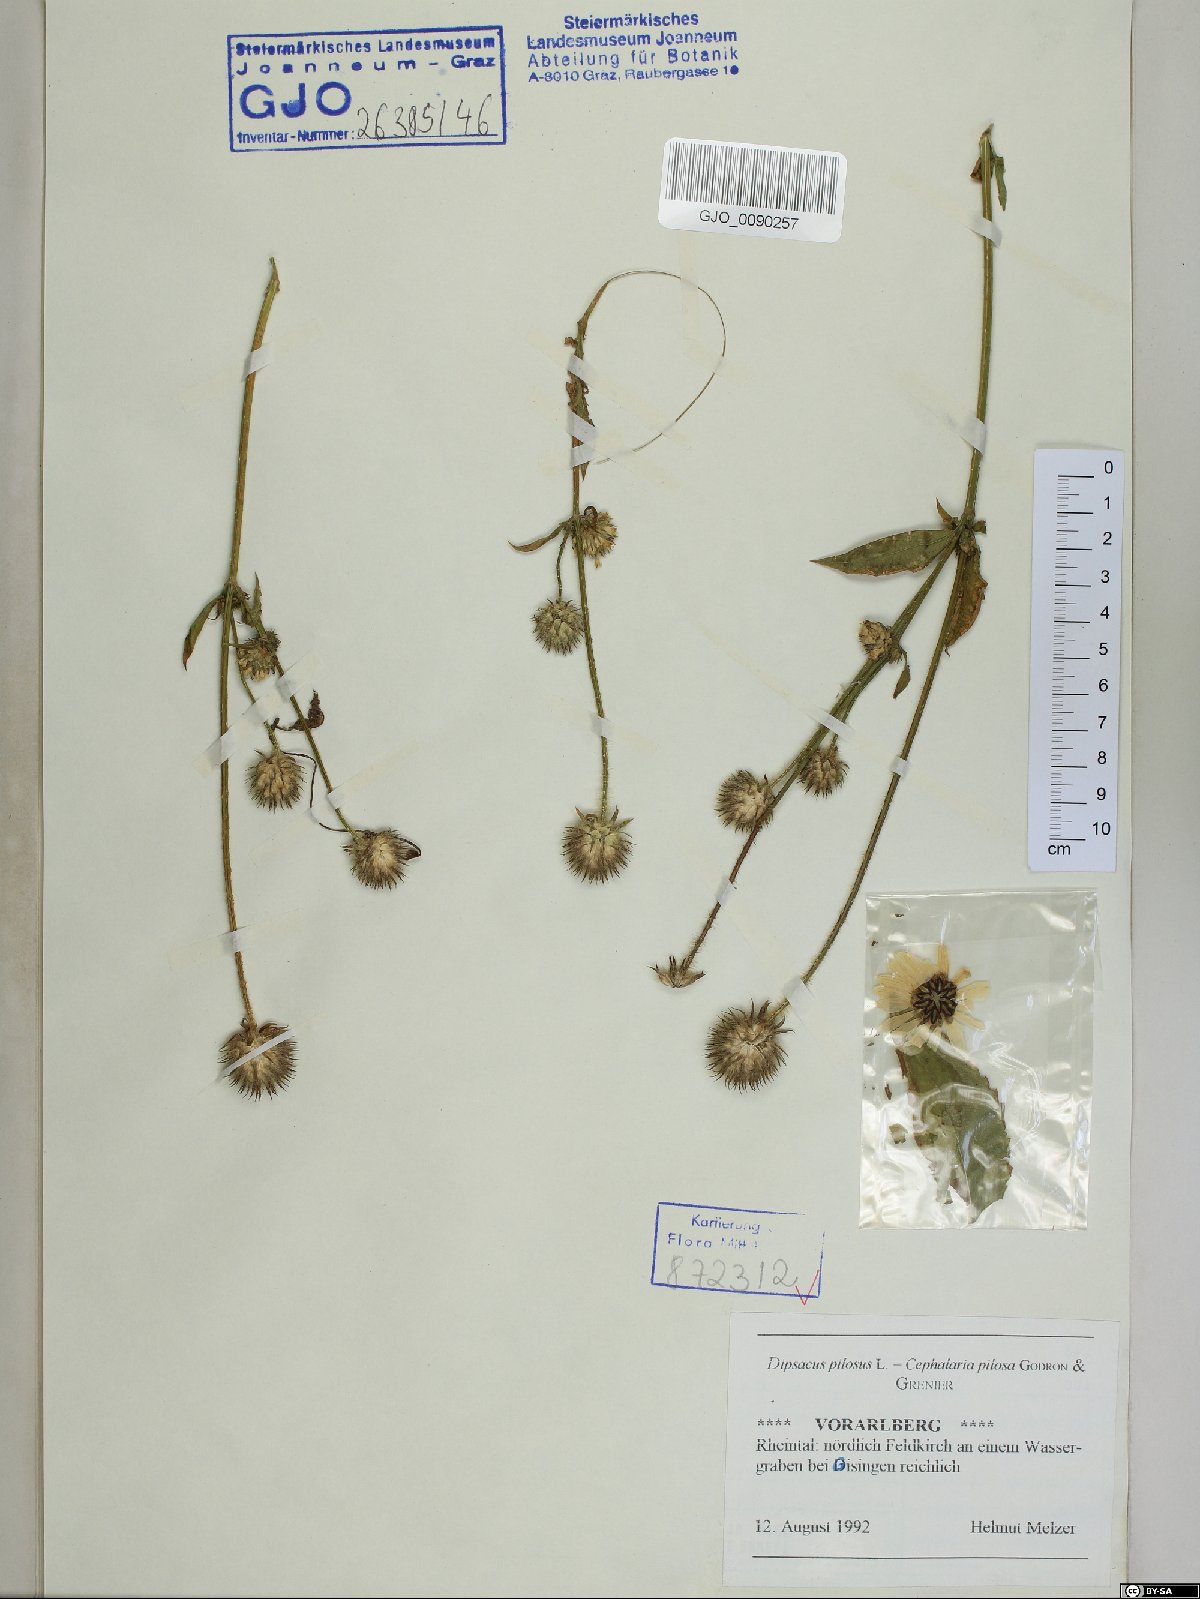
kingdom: Plantae
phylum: Tracheophyta
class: Magnoliopsida
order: Dipsacales
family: Caprifoliaceae
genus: Dipsacus
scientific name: Dipsacus pilosus
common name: Small teasel
